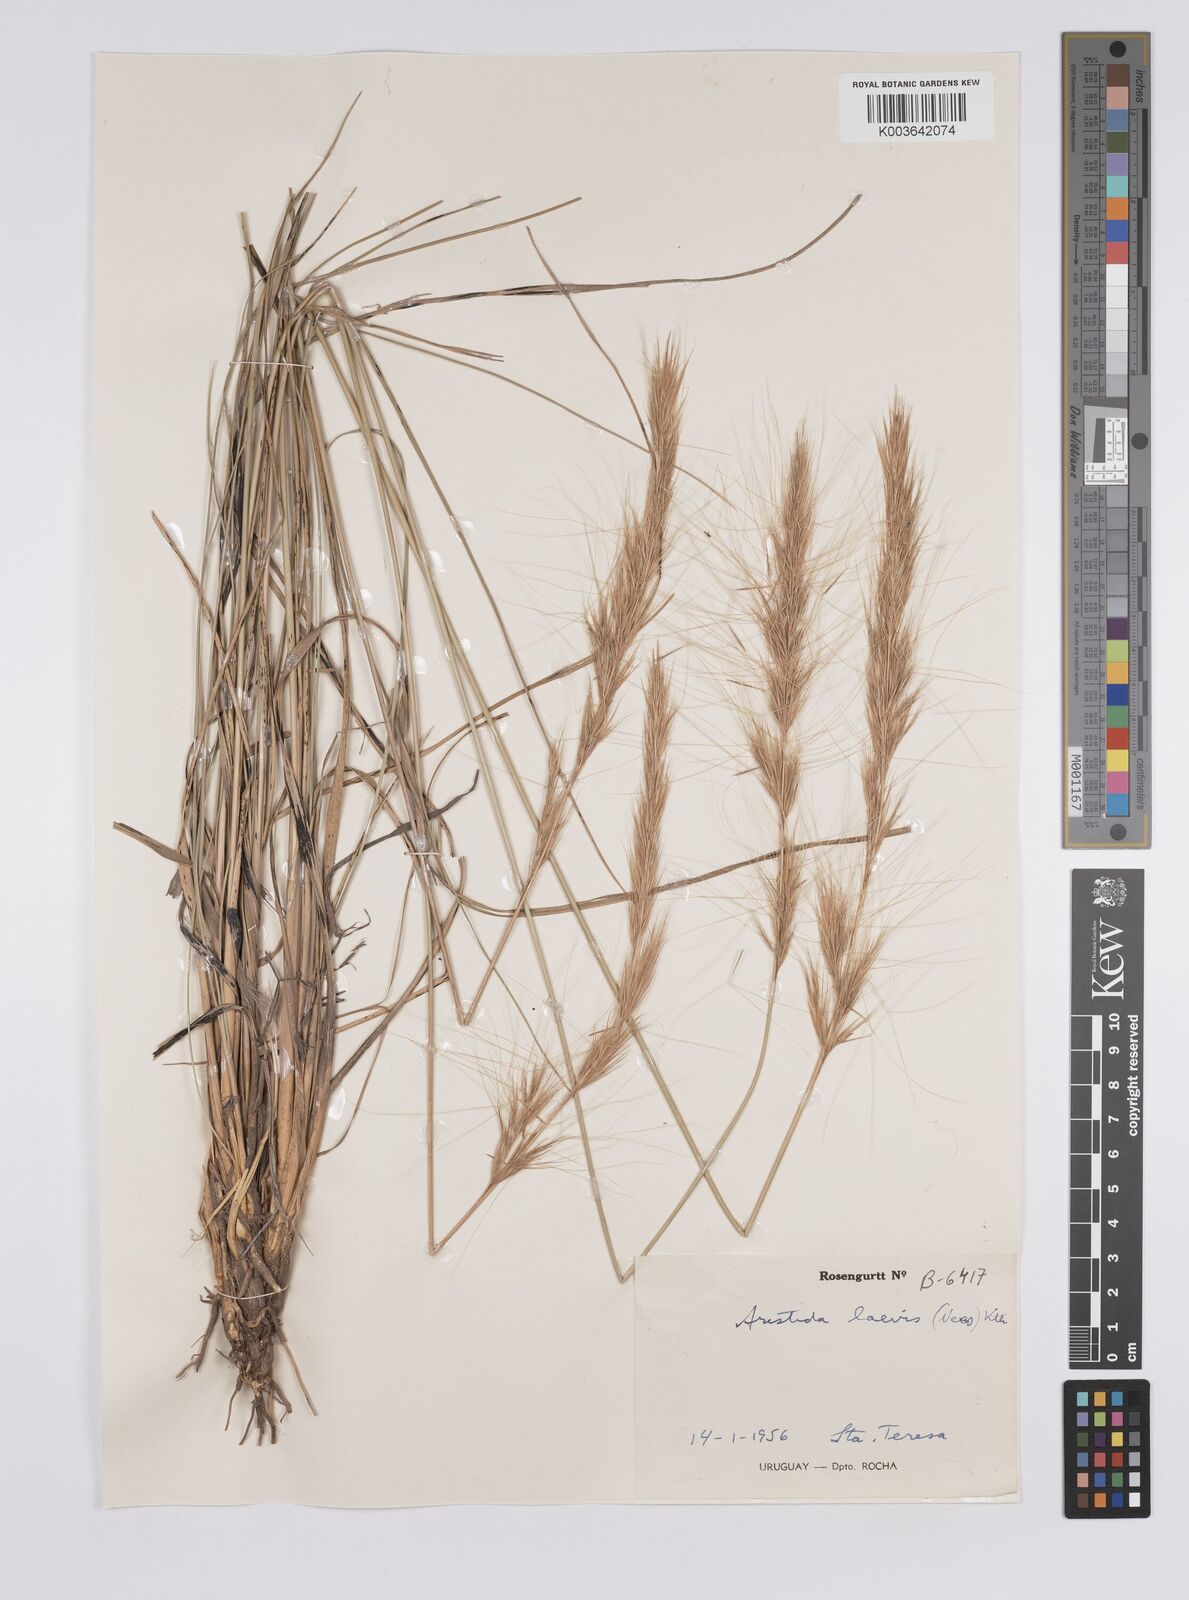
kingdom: Plantae
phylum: Tracheophyta
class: Liliopsida
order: Poales
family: Poaceae
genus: Aristida
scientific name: Aristida laevis
